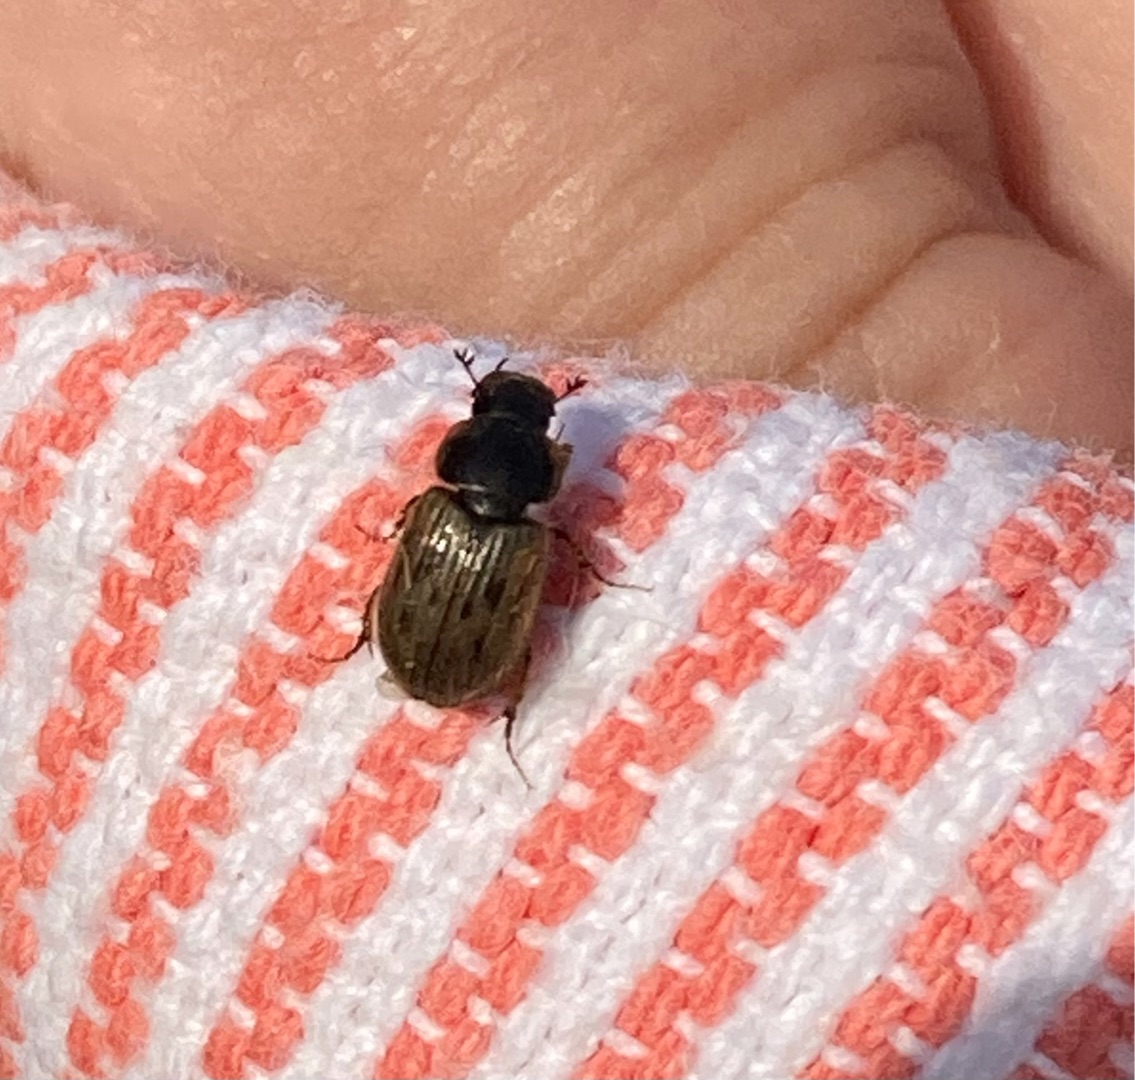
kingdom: Animalia
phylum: Arthropoda
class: Insecta
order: Coleoptera
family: Scarabaeidae
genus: Nimbus
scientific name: Nimbus contaminatus
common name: Sandhåret møgbille
